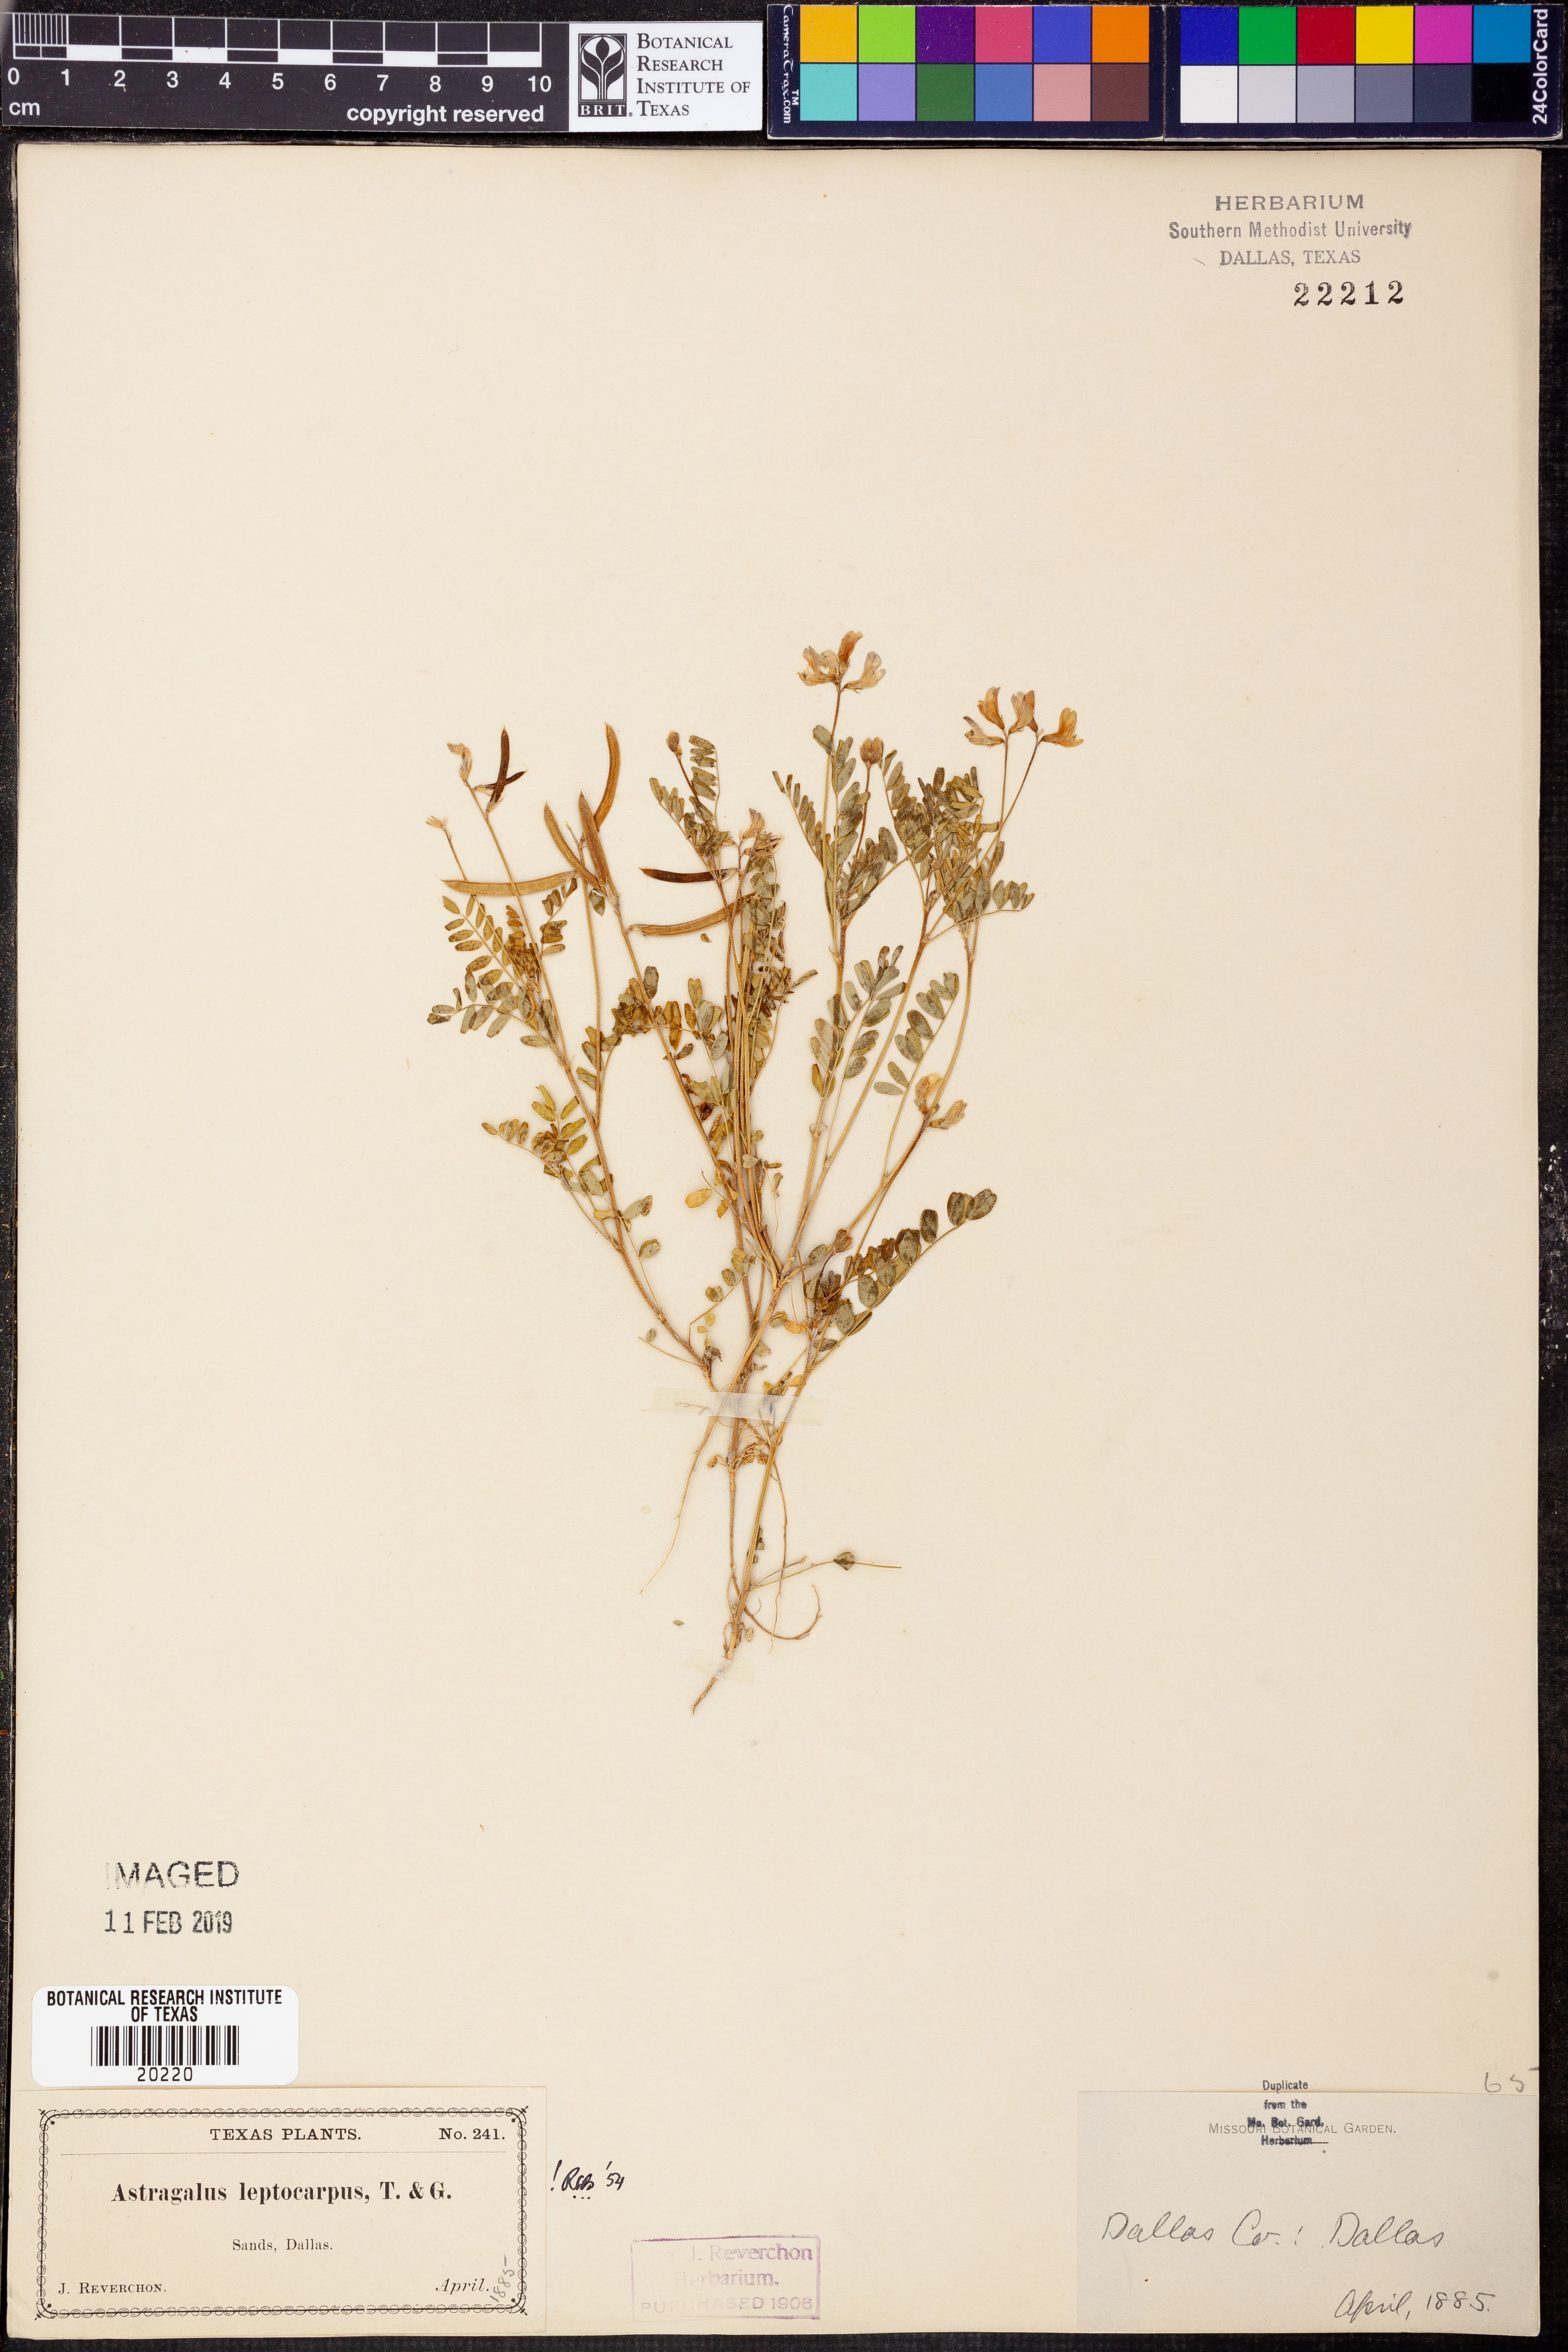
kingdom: Plantae
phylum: Tracheophyta
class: Magnoliopsida
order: Fabales
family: Fabaceae
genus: Astragalus
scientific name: Astragalus leptocarpus
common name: Bodkin milk-vetch
